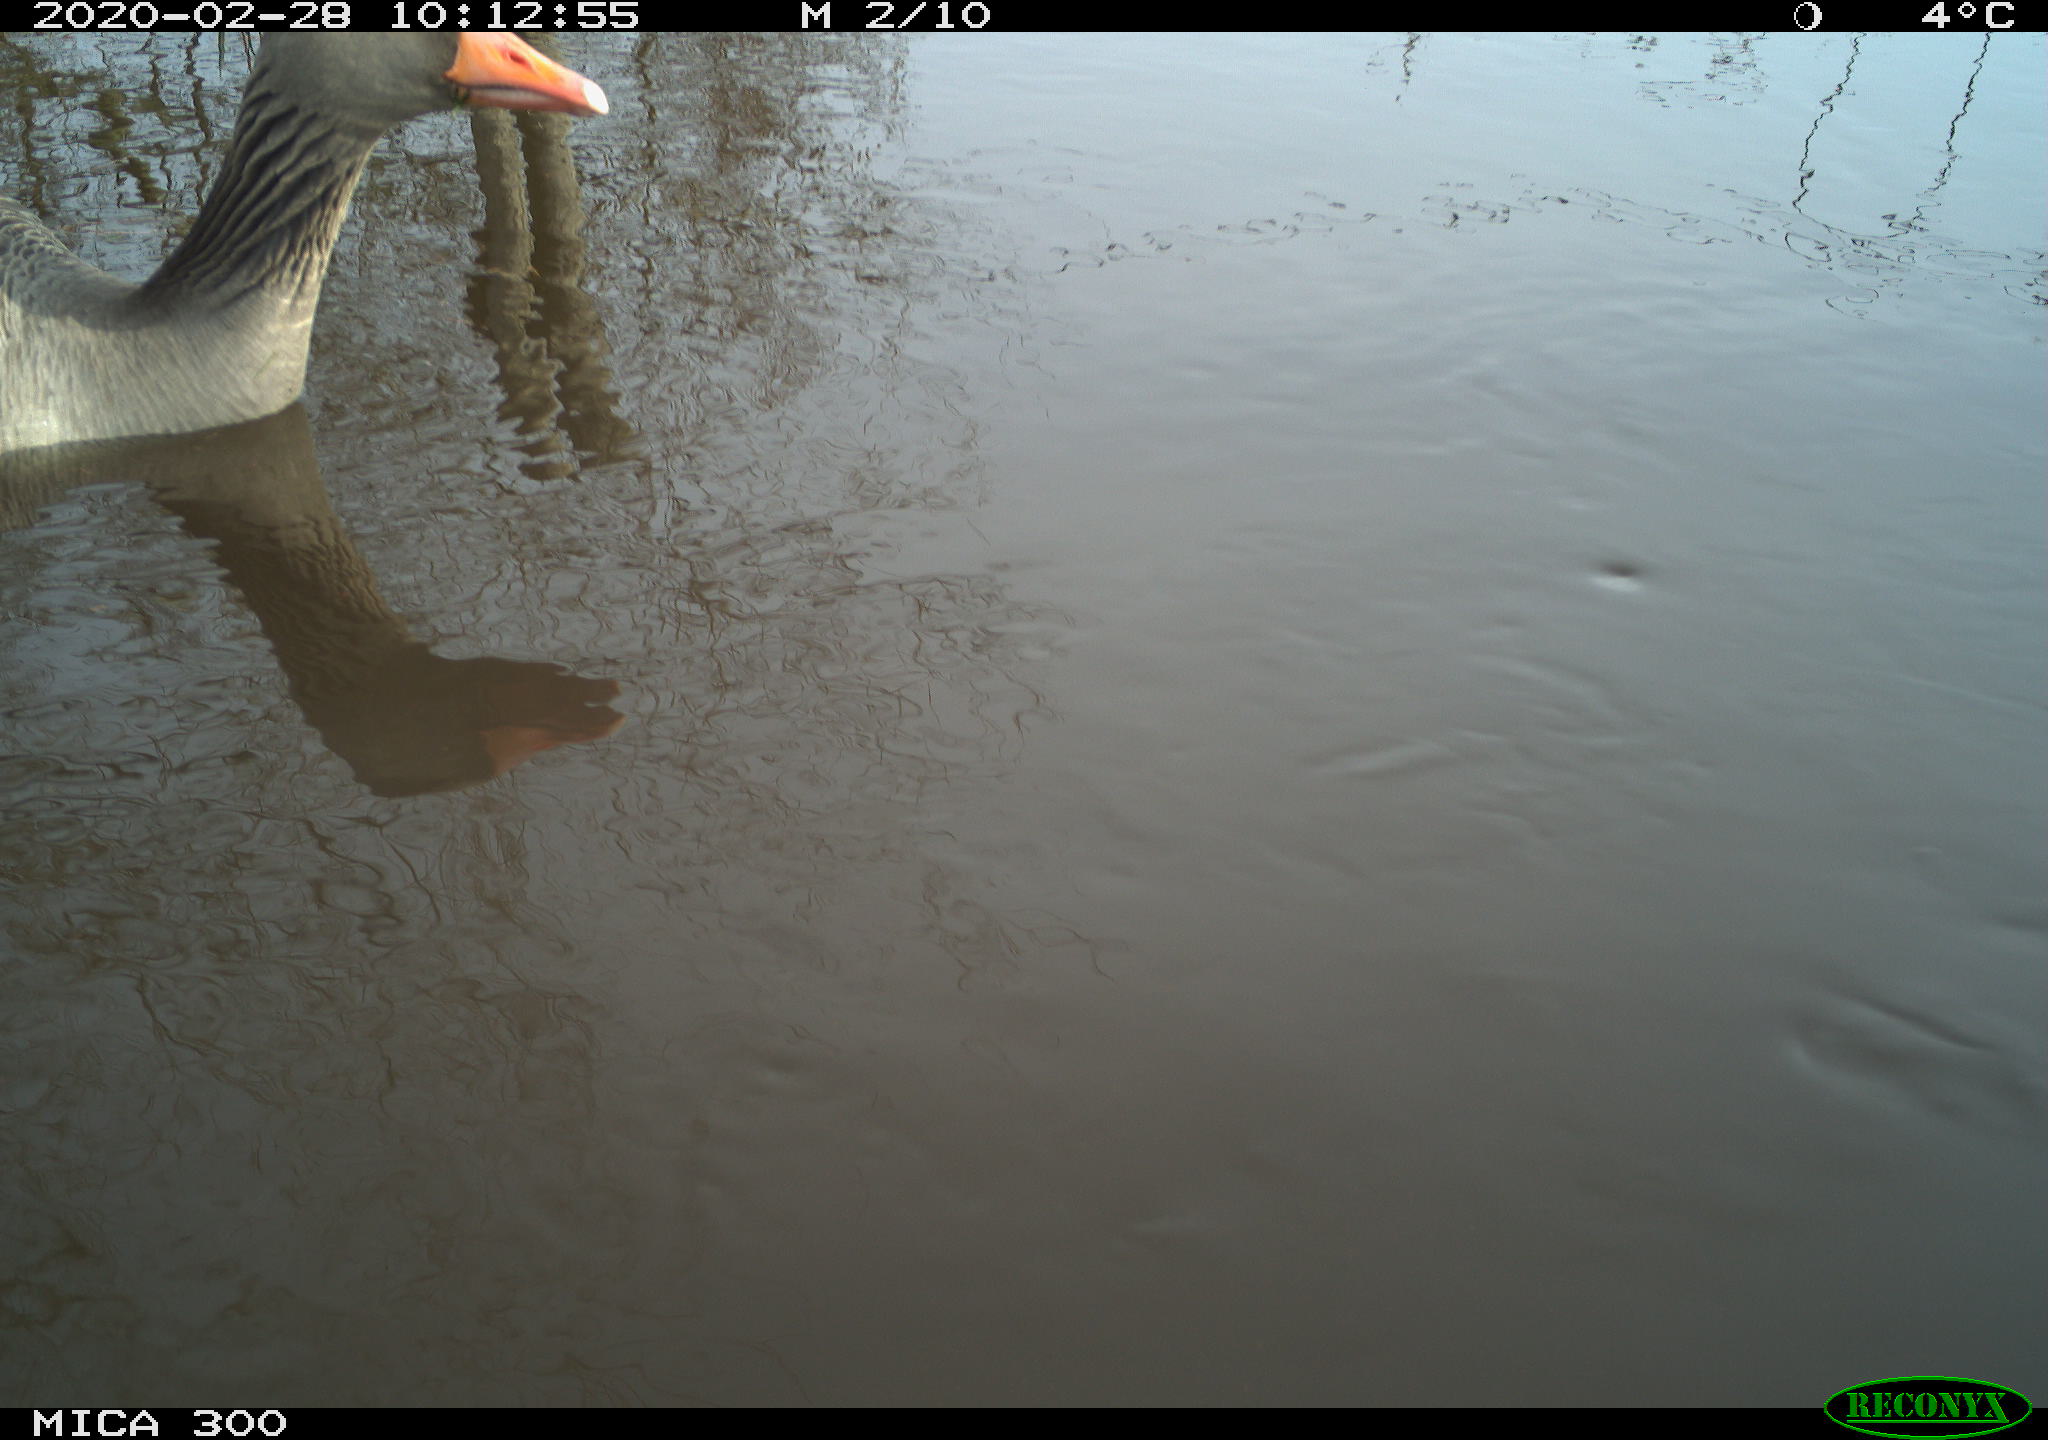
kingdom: Animalia
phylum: Chordata
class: Aves
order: Anseriformes
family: Anatidae
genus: Anser
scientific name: Anser anser
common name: Greylag goose
